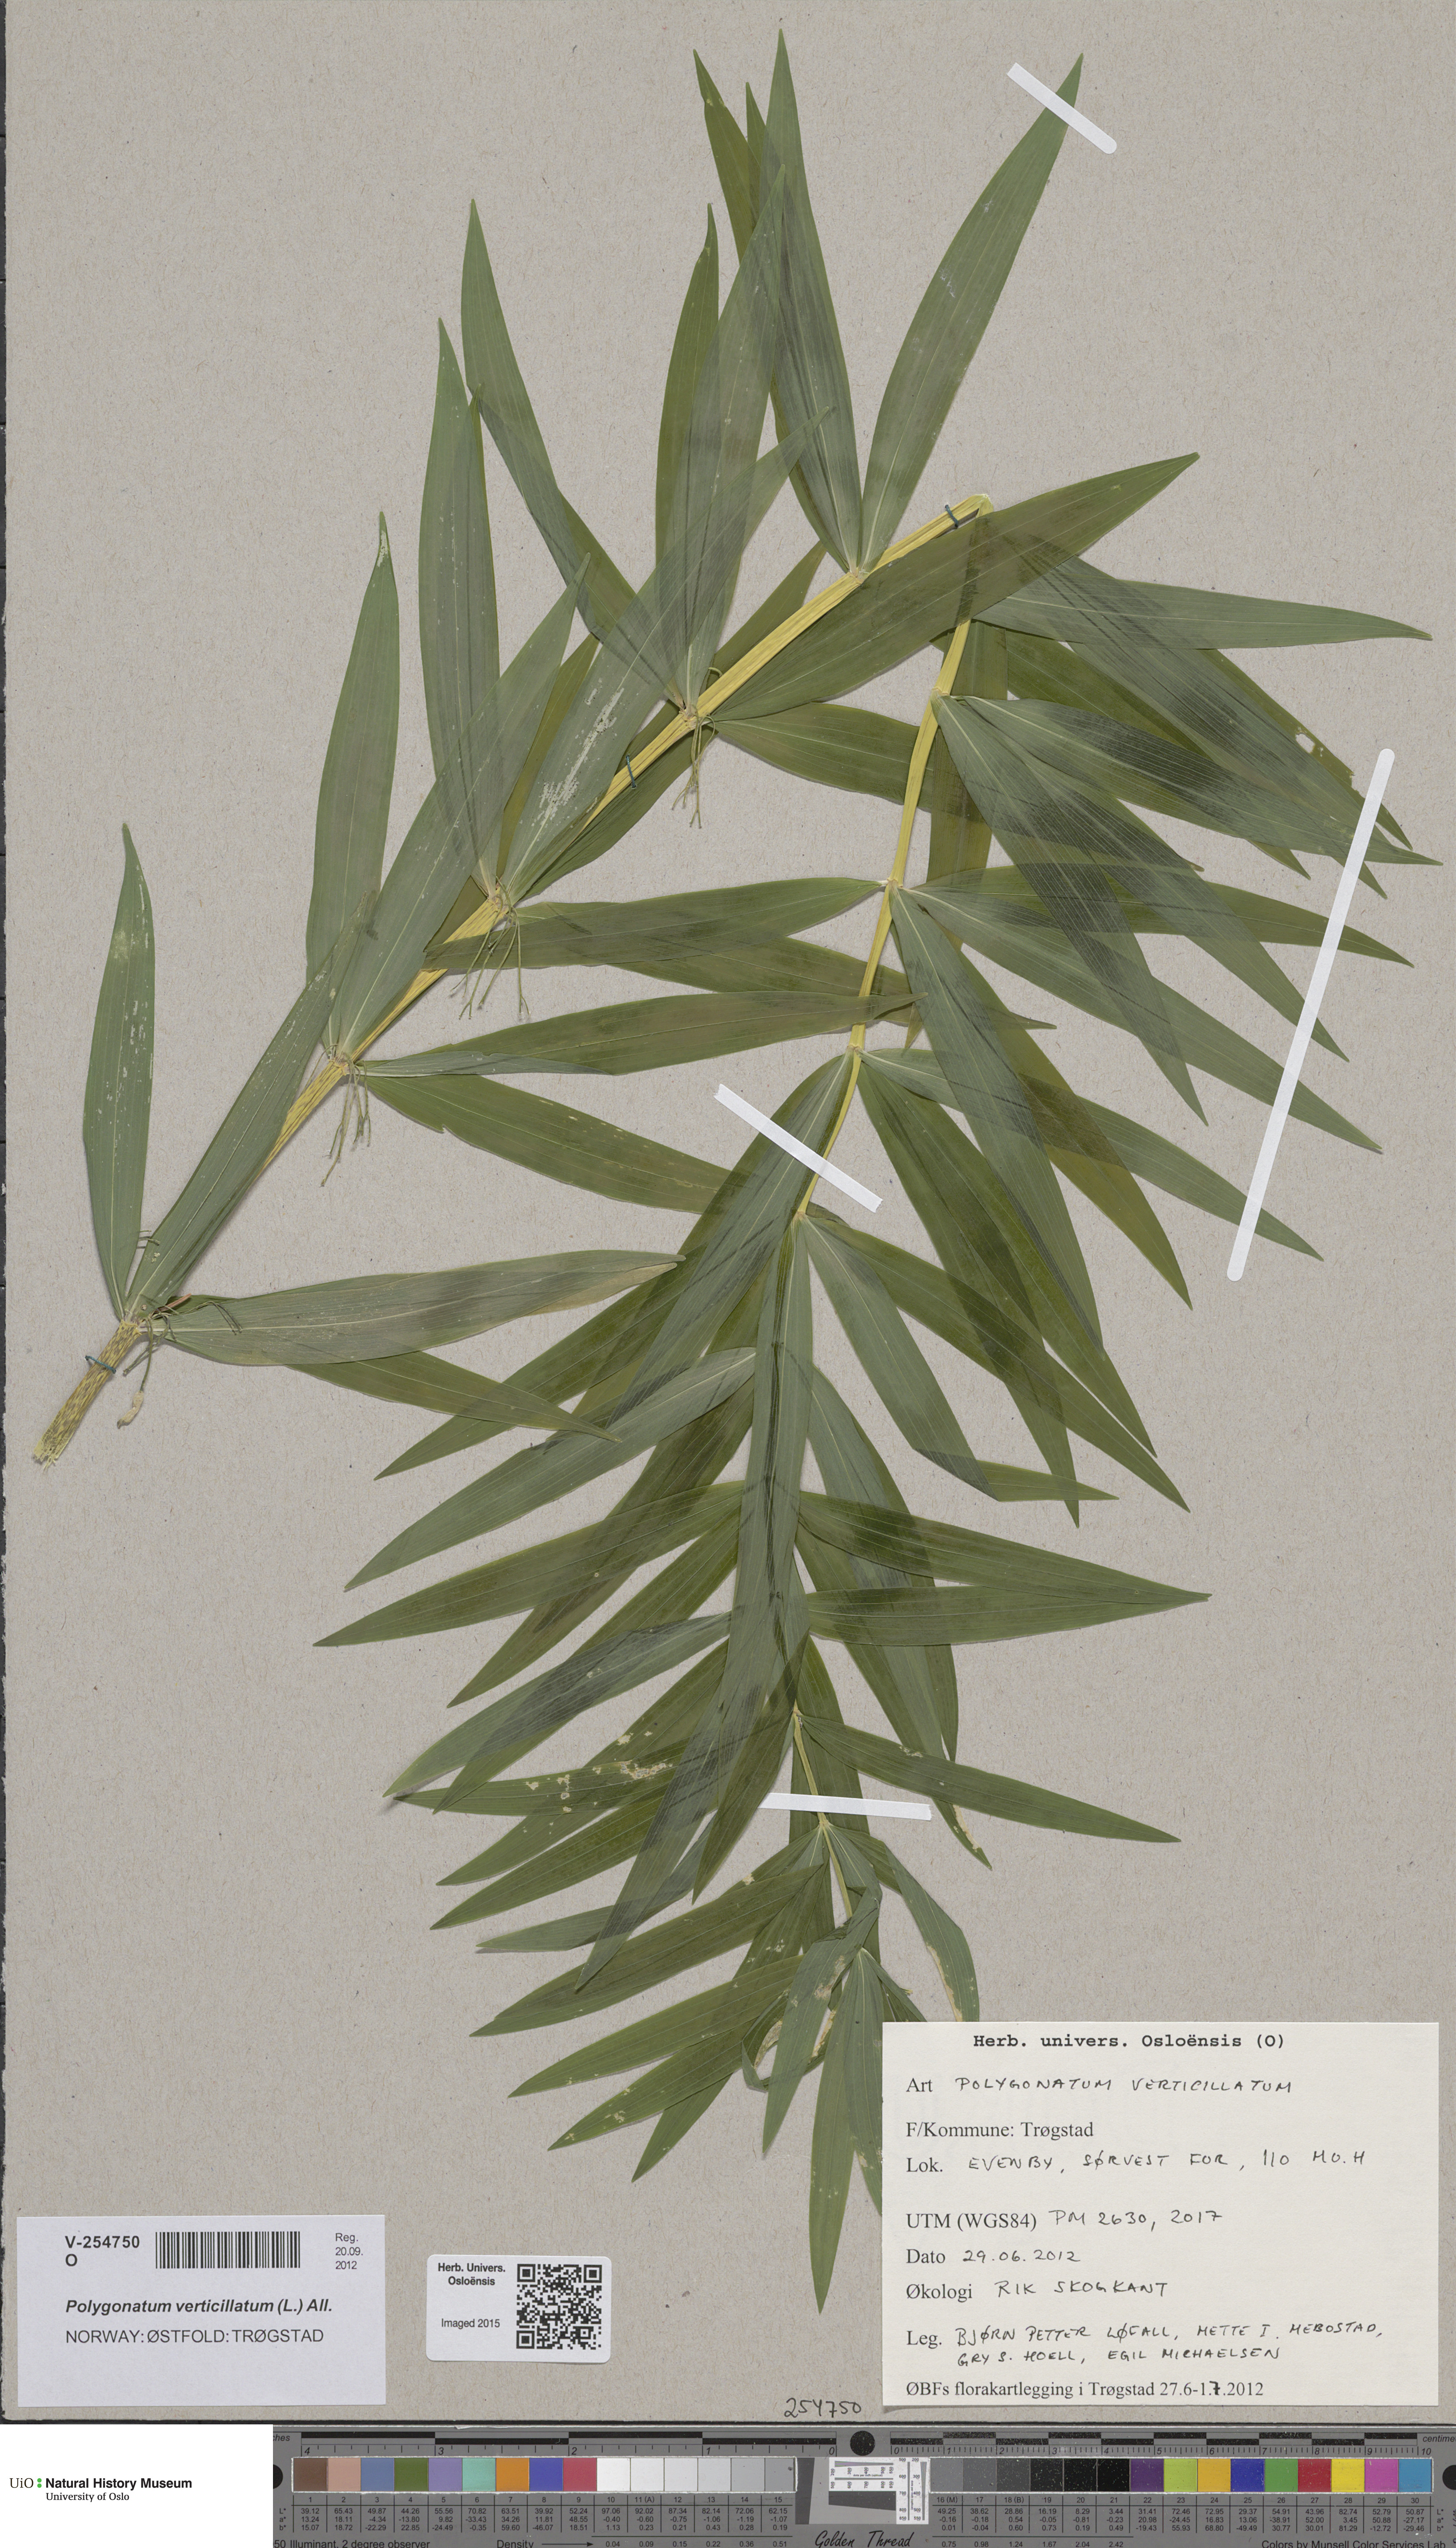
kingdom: Plantae
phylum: Tracheophyta
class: Liliopsida
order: Asparagales
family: Asparagaceae
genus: Polygonatum
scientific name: Polygonatum verticillatum
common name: Whorled solomon's-seal
